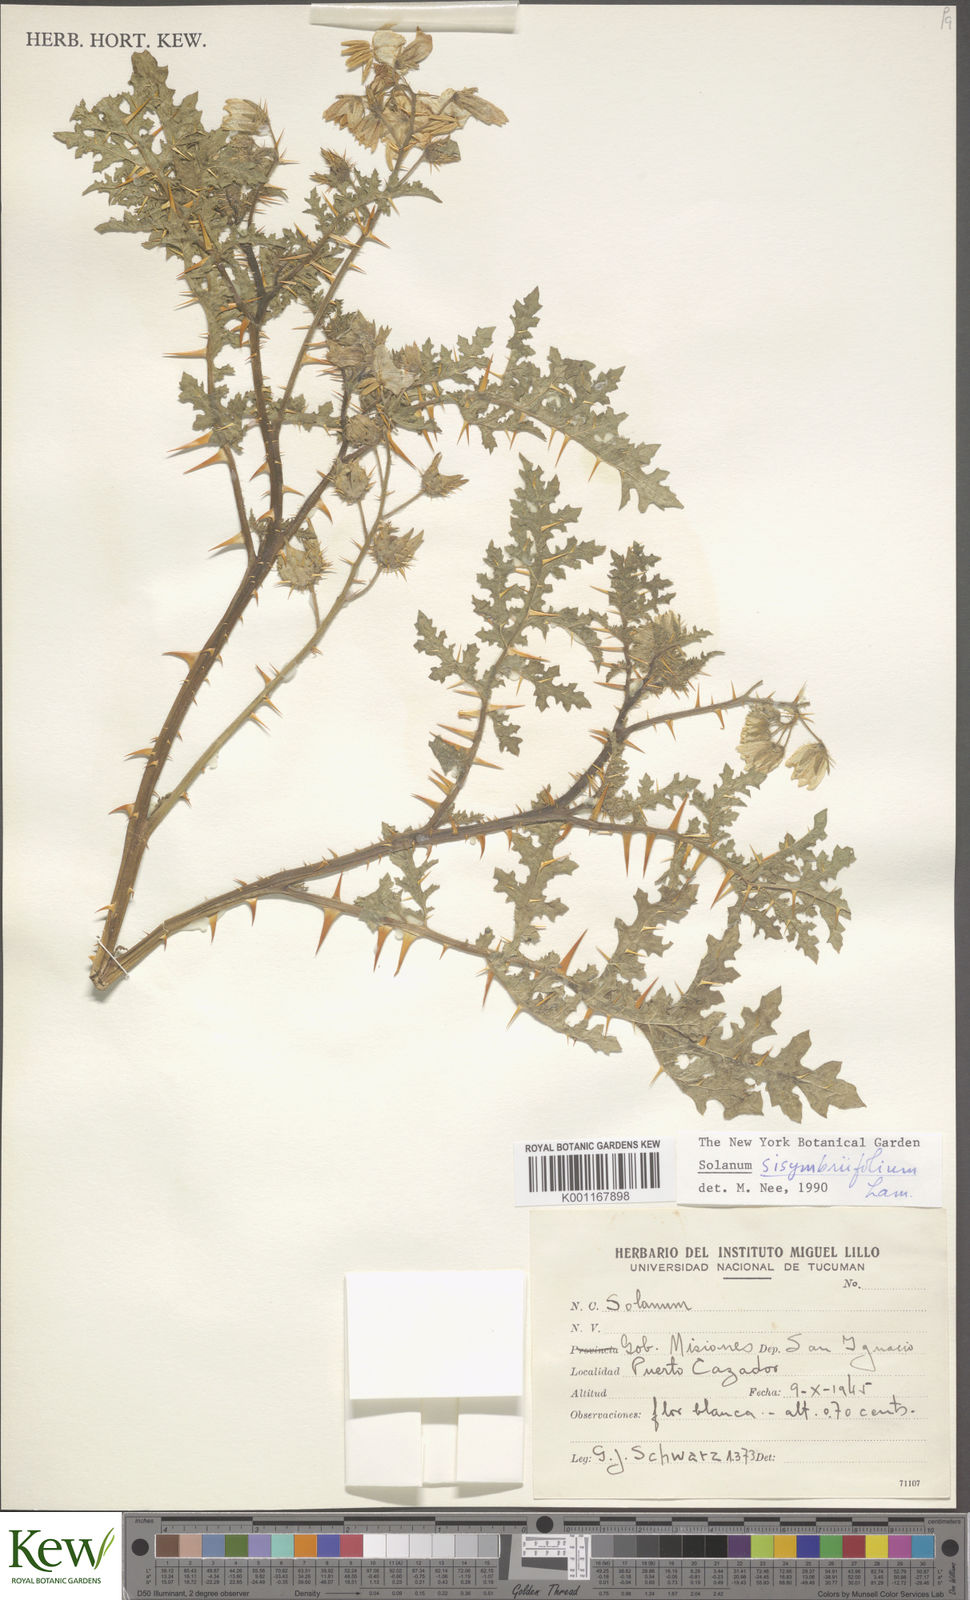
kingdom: Plantae
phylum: Tracheophyta
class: Magnoliopsida
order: Solanales
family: Solanaceae
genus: Solanum
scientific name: Solanum sisymbriifolium
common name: Red buffalo-bur
